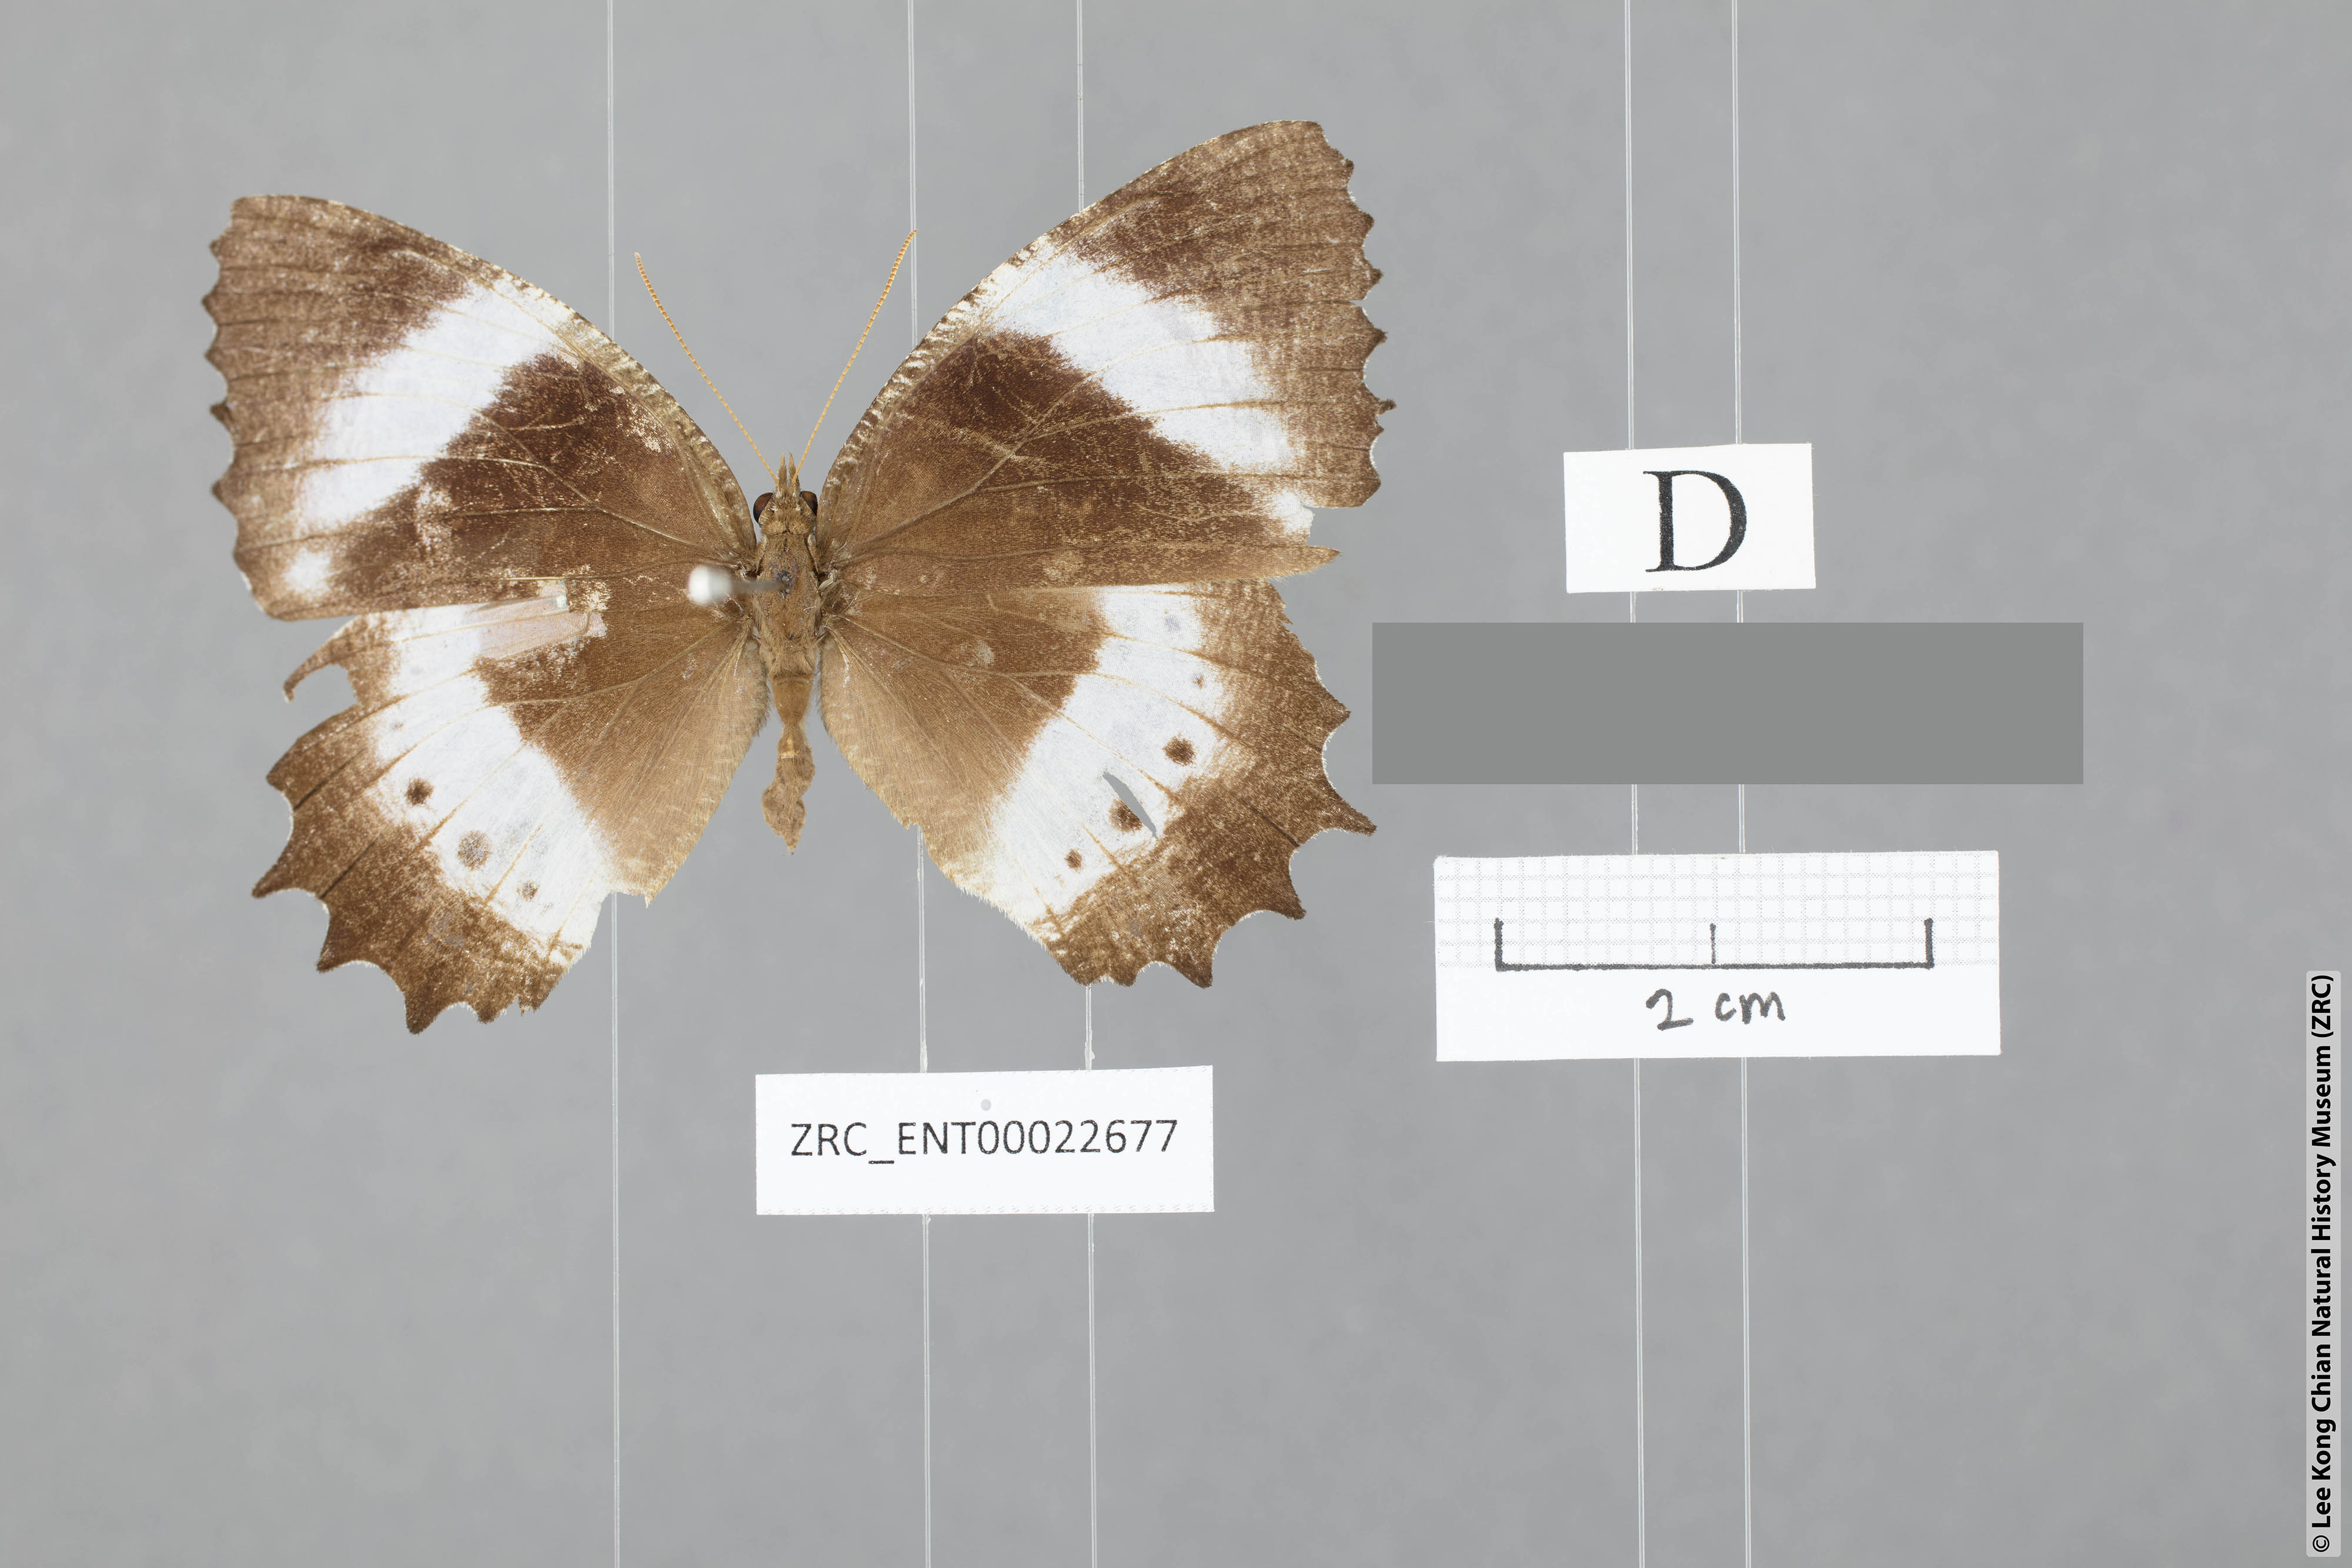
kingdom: Animalia
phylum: Arthropoda
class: Insecta
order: Lepidoptera
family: Nymphalidae
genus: Elymnias
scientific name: Elymnias dara
